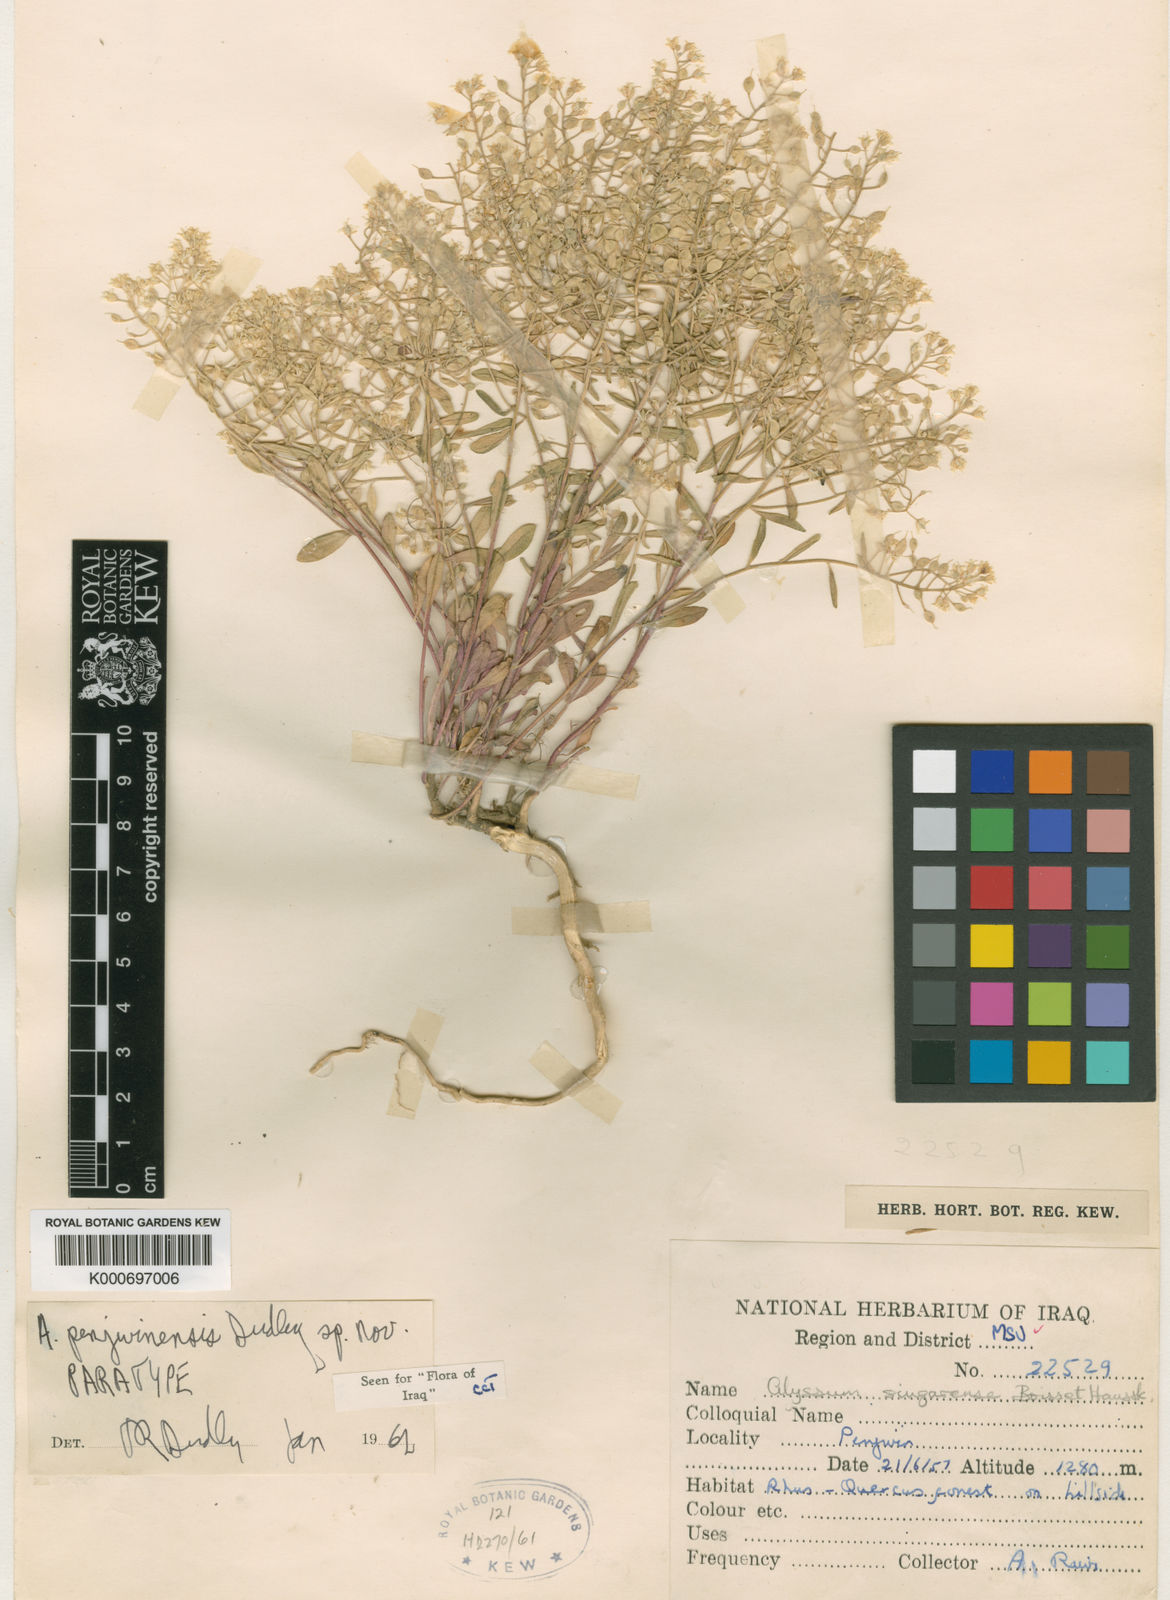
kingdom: Plantae
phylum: Tracheophyta
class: Magnoliopsida
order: Brassicales
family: Brassicaceae
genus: Odontarrhena
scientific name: Odontarrhena penjwinensis
